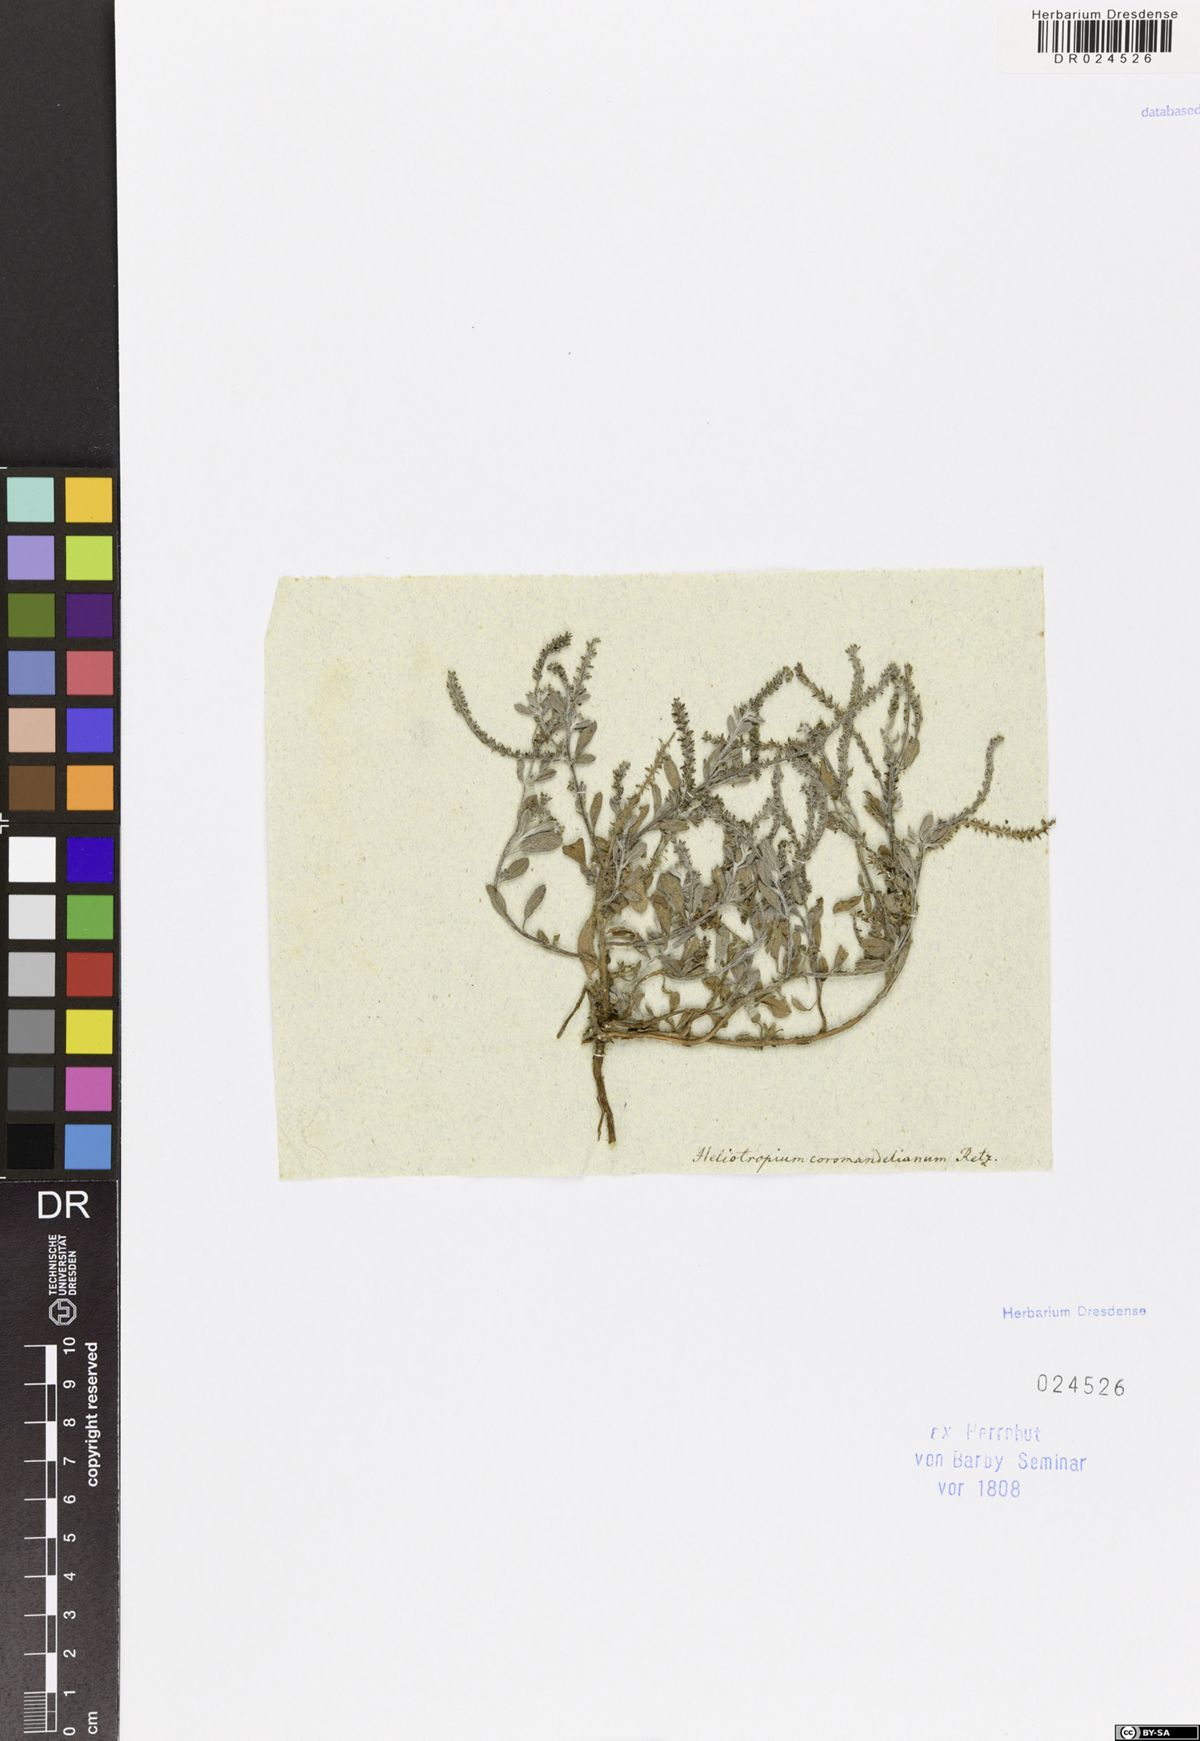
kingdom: Plantae
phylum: Tracheophyta
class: Magnoliopsida
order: Boraginales
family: Heliotropiaceae
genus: Heliotropium
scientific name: Heliotropium supinum
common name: Dwarf heliotrope
